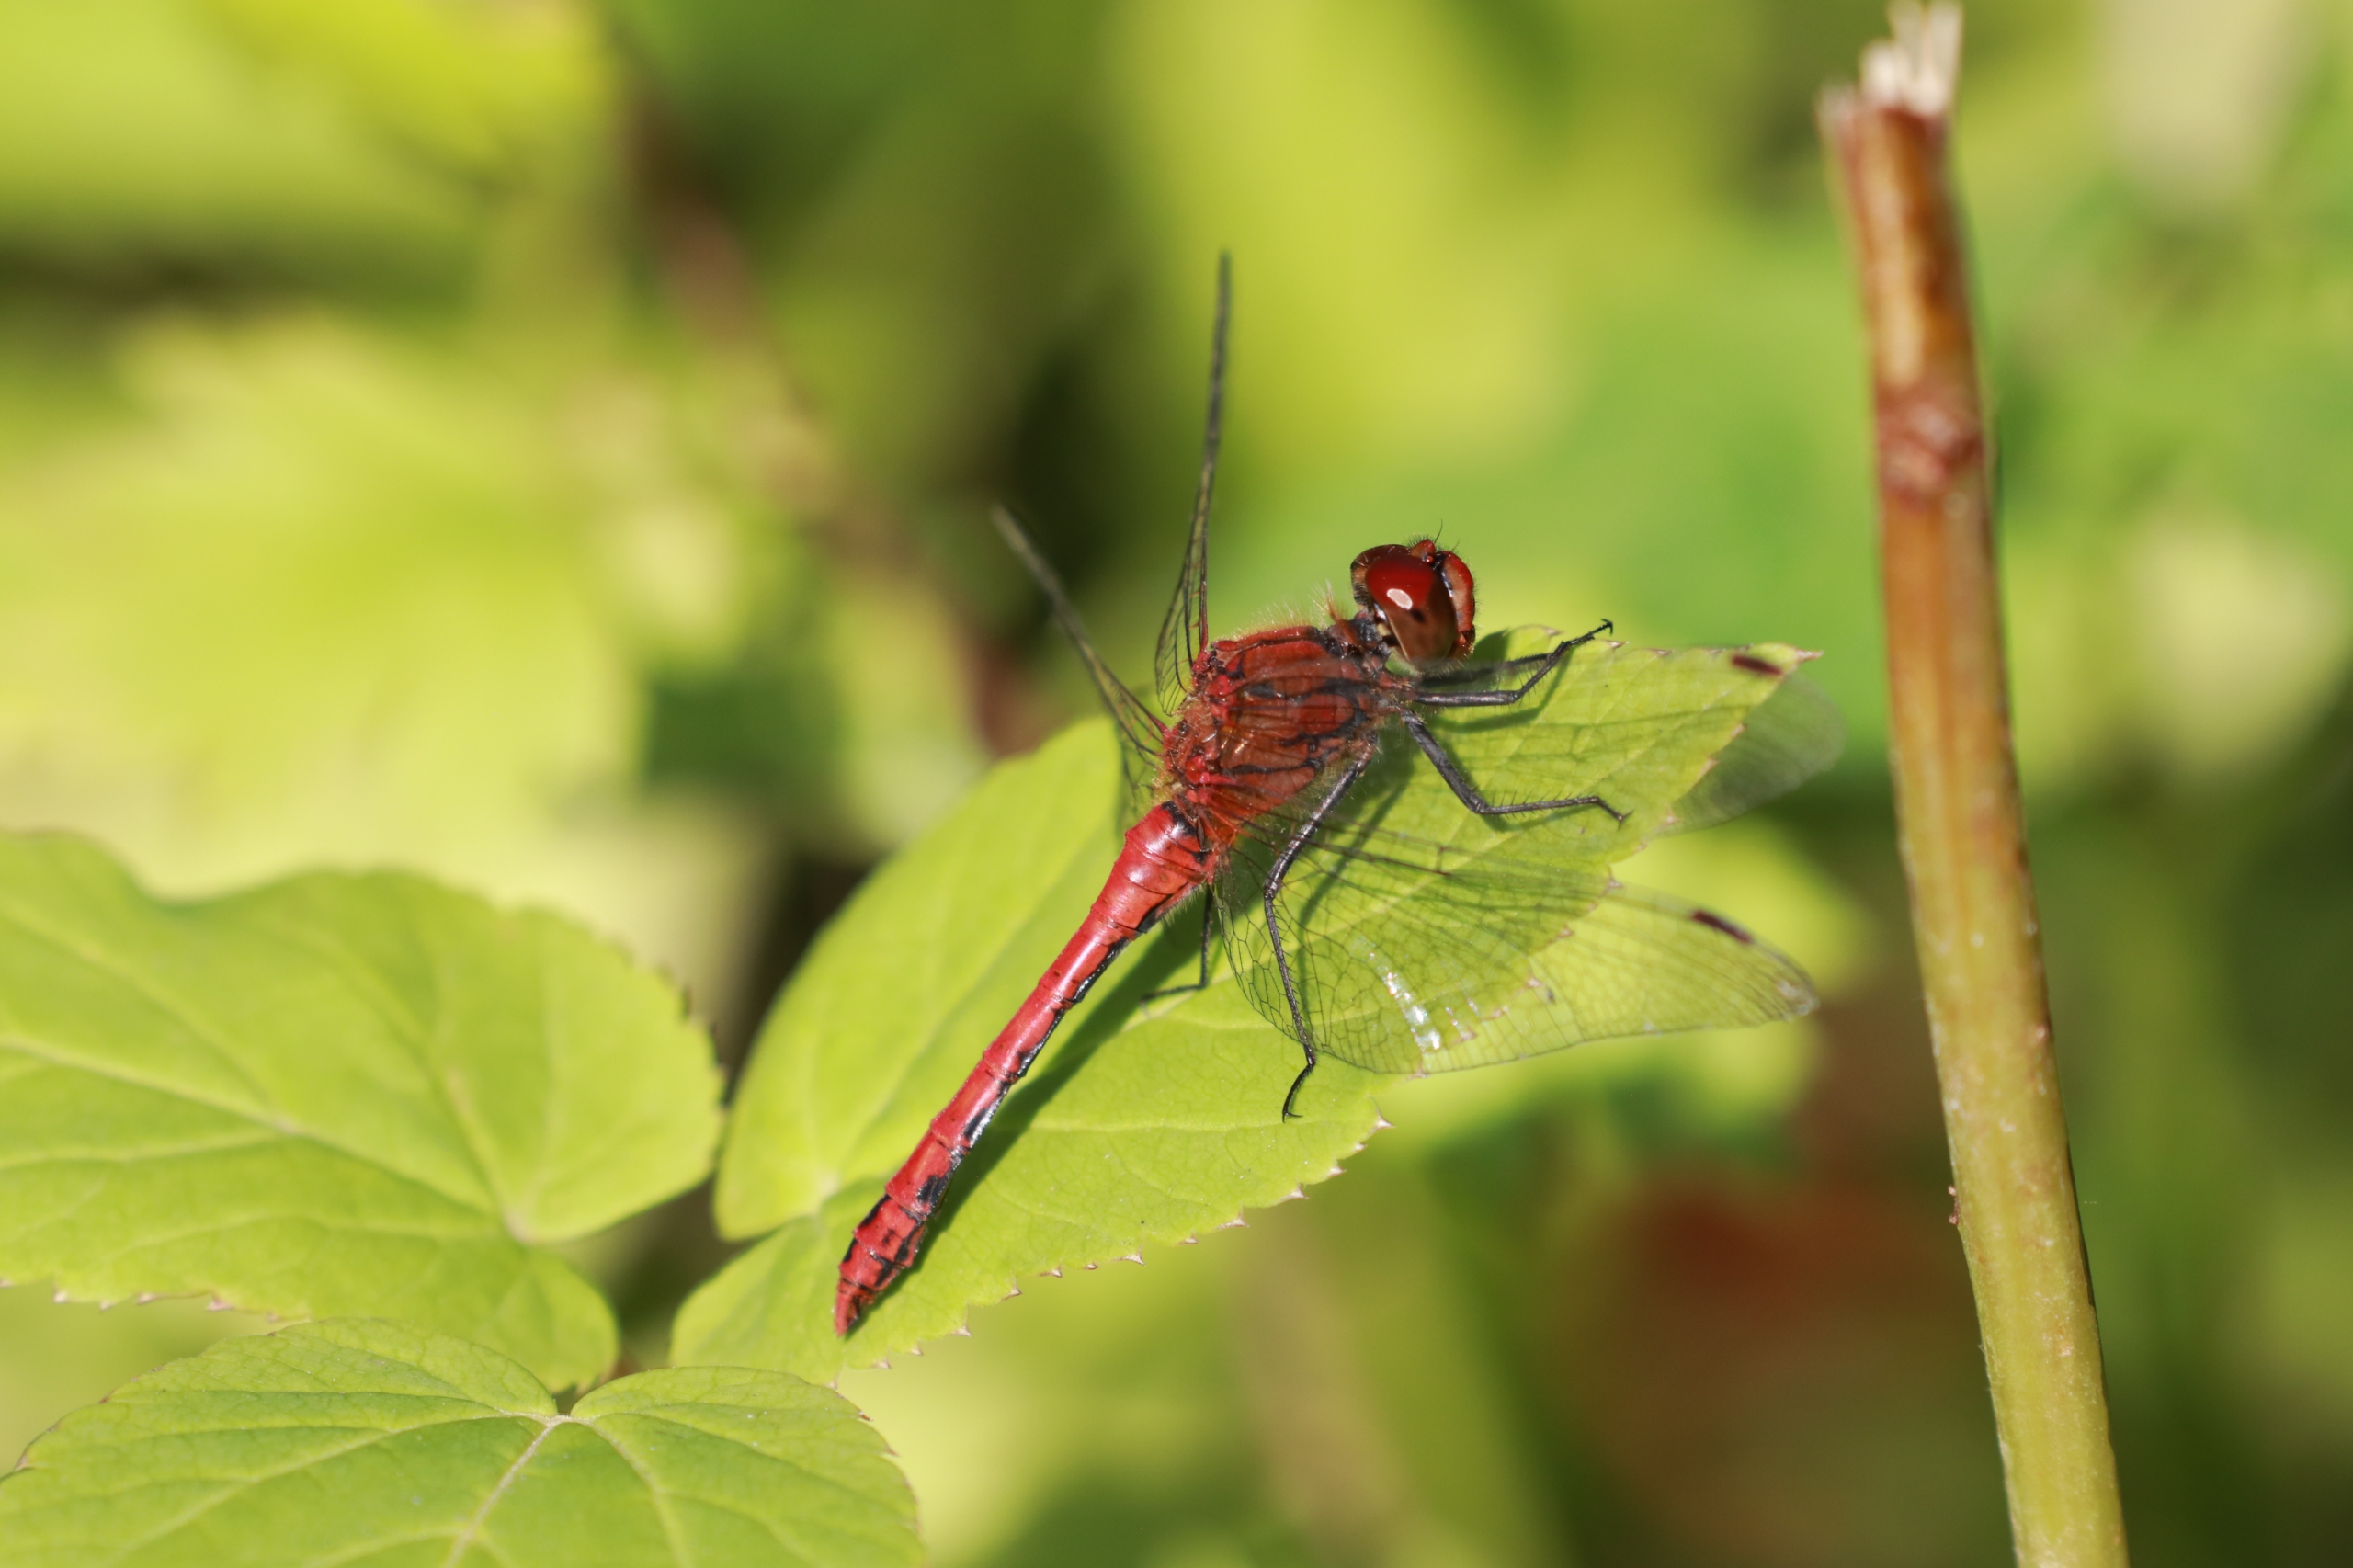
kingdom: Animalia
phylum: Arthropoda
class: Insecta
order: Odonata
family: Libellulidae
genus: Sympetrum
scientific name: Sympetrum sanguineum
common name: Blodrød hedelibel
